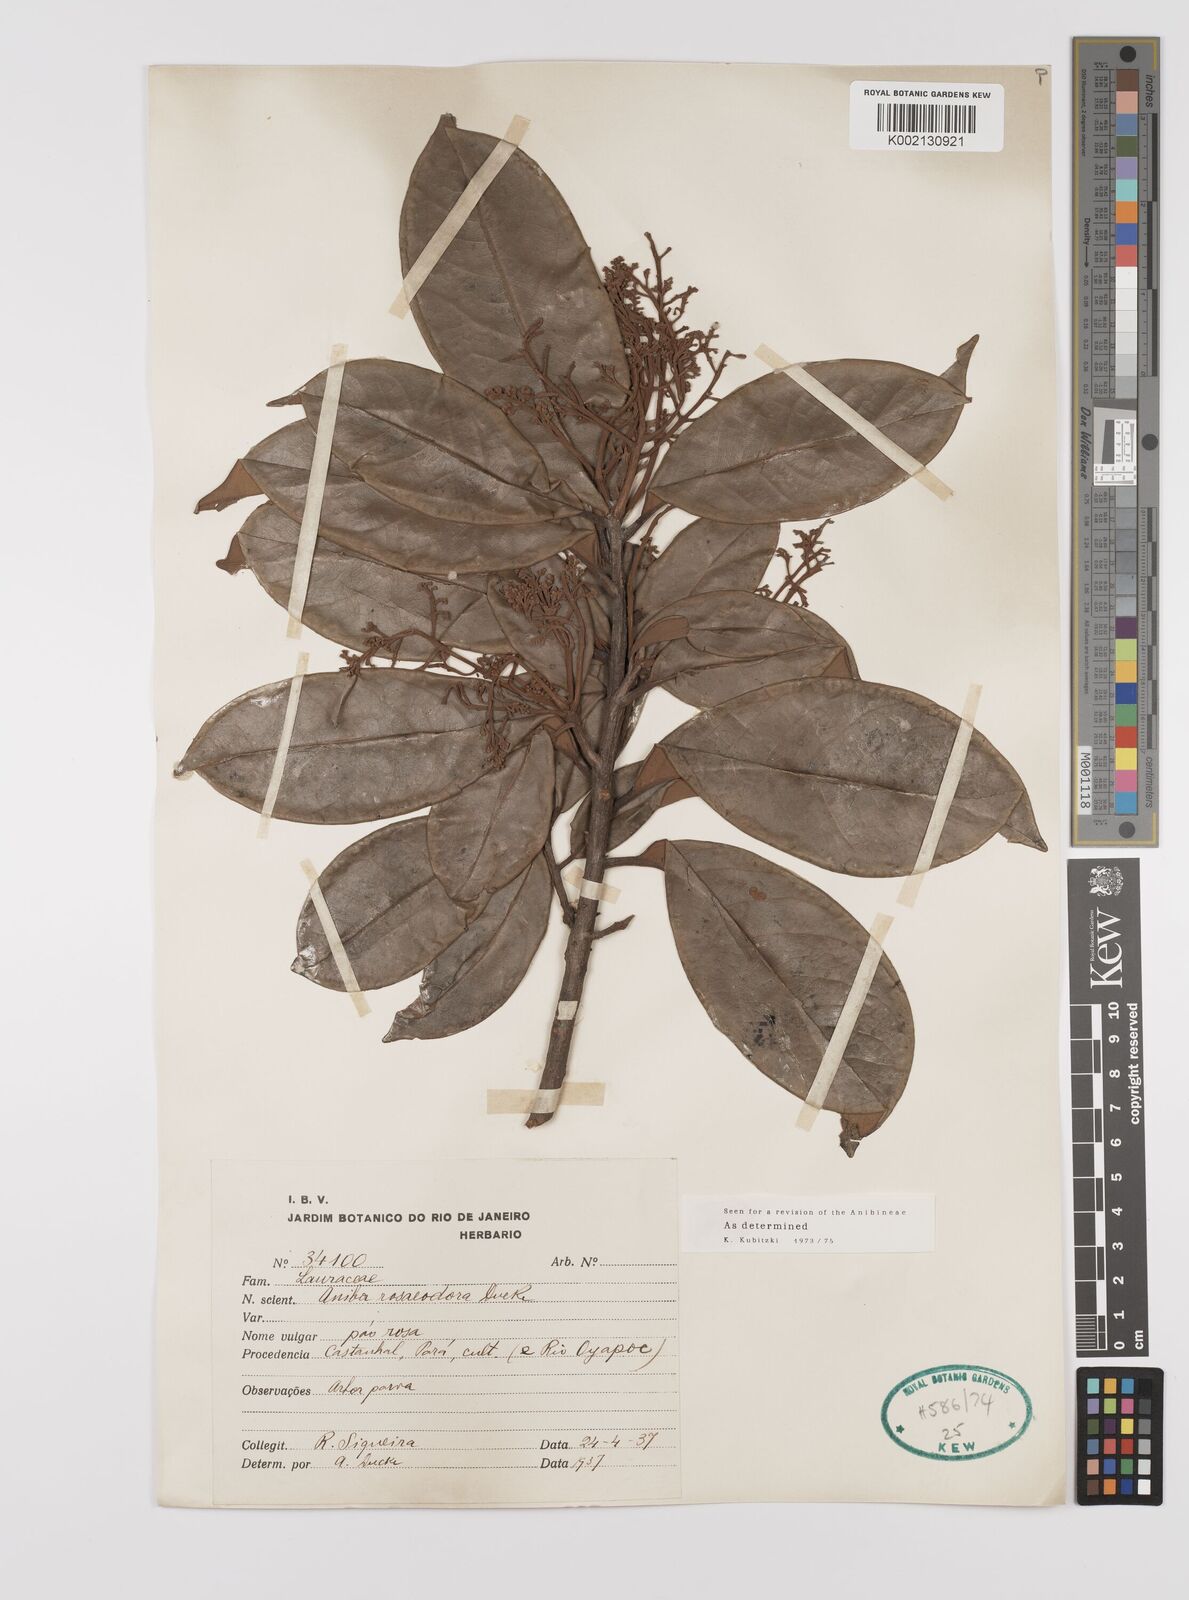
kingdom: Plantae
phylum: Tracheophyta
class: Magnoliopsida
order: Laurales
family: Lauraceae
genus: Aniba
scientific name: Aniba rosodora
